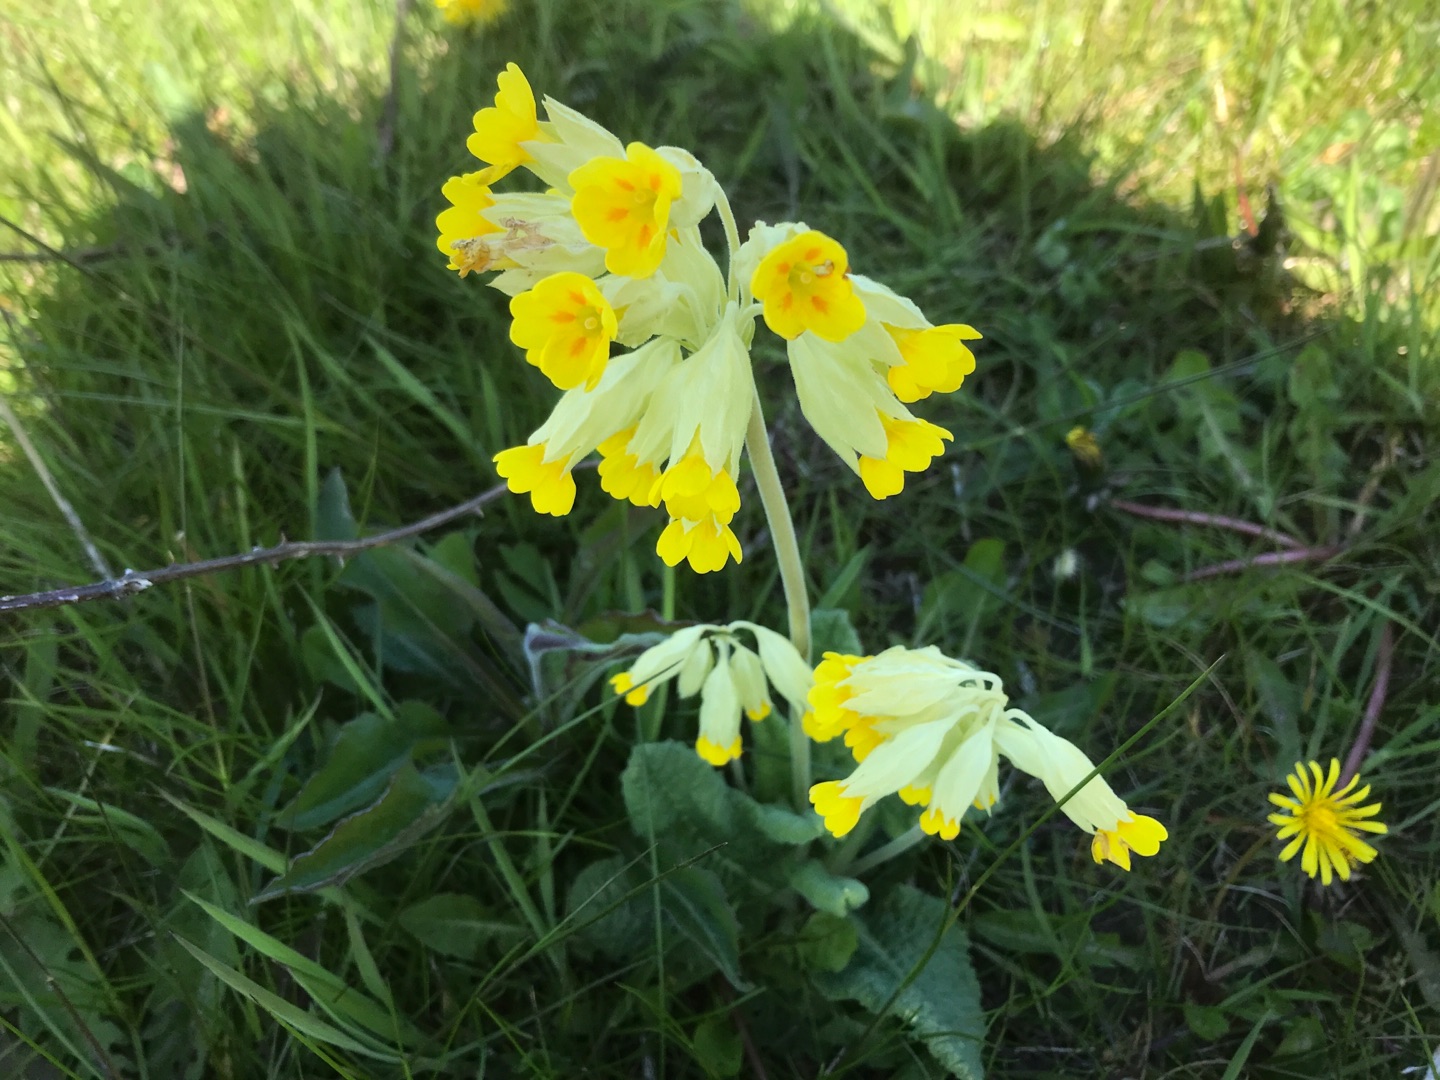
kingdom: Plantae
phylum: Tracheophyta
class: Magnoliopsida
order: Ericales
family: Primulaceae
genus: Primula
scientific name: Primula veris
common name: Hulkravet kodriver
